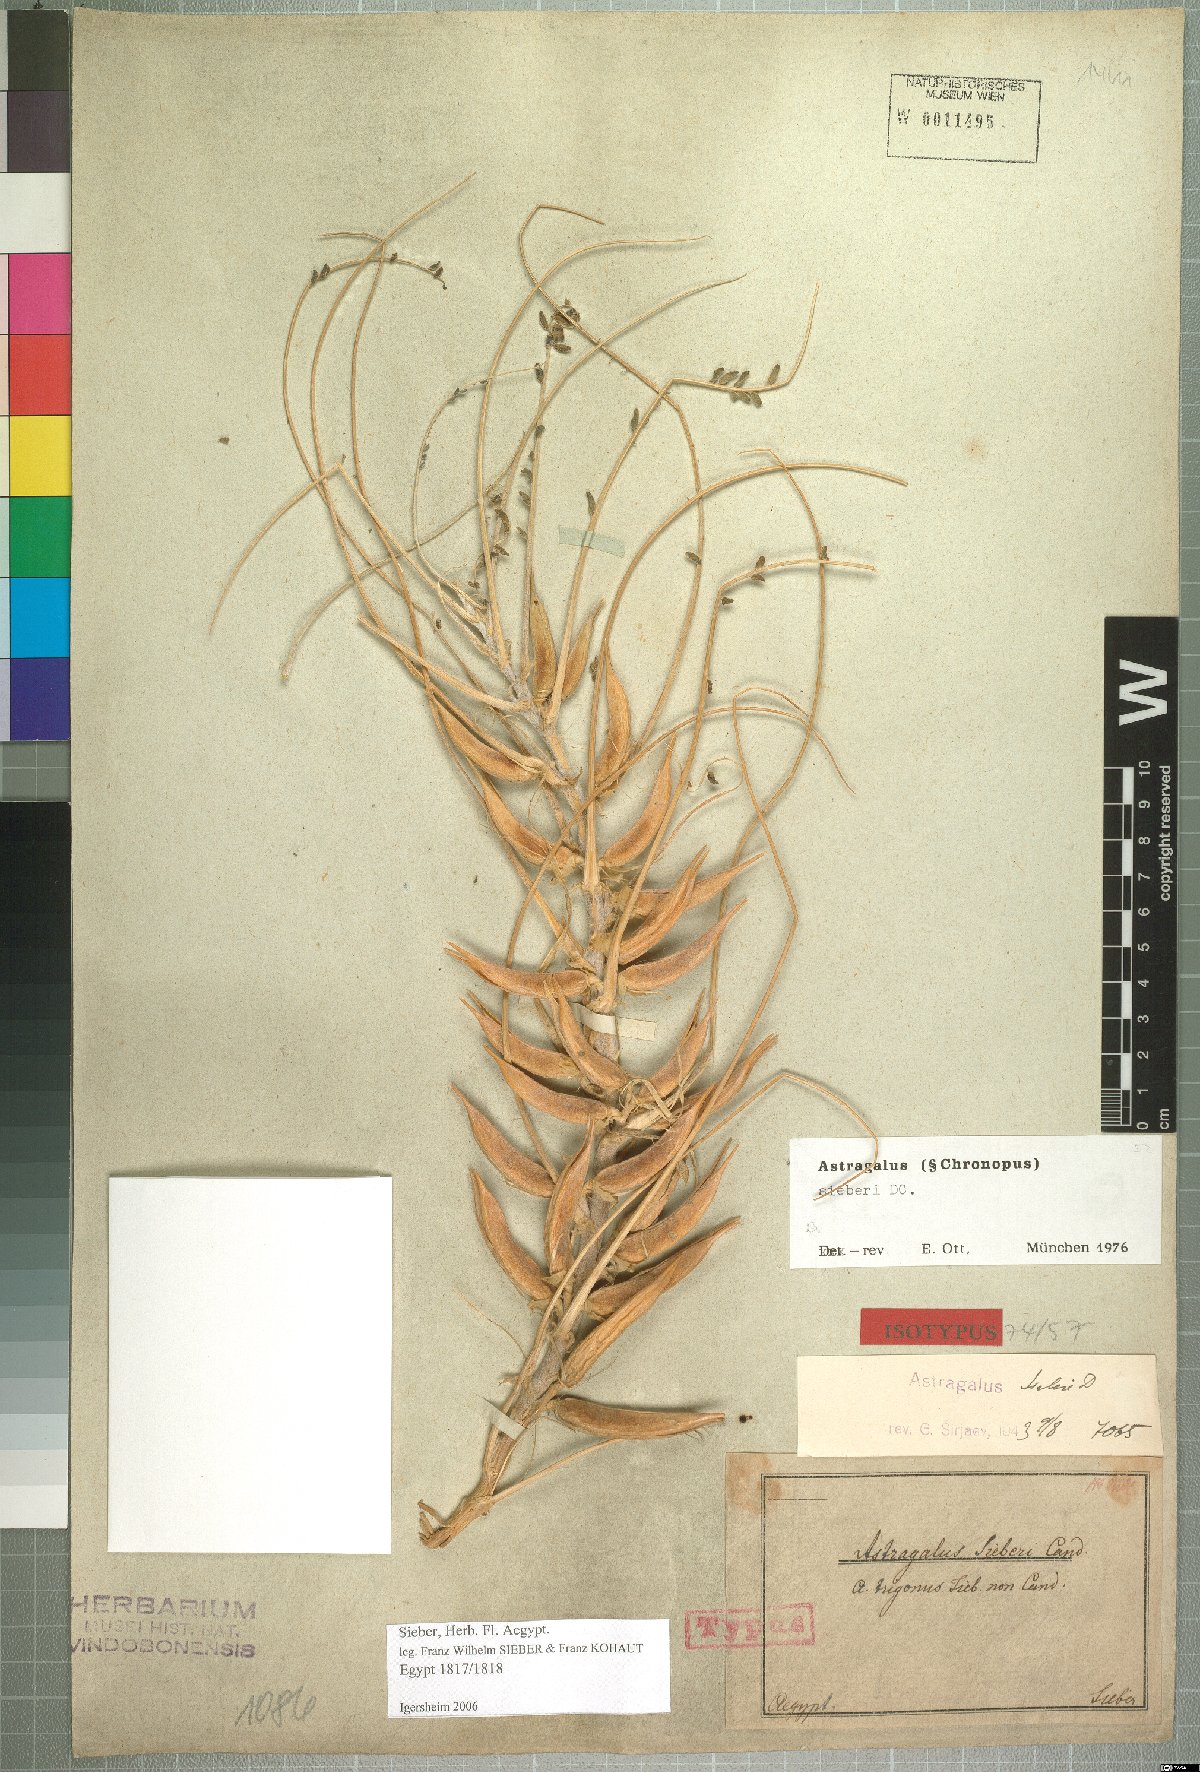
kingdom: Plantae
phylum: Tracheophyta
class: Magnoliopsida
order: Fabales
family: Fabaceae
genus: Astragalus
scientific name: Astragalus sieberi
